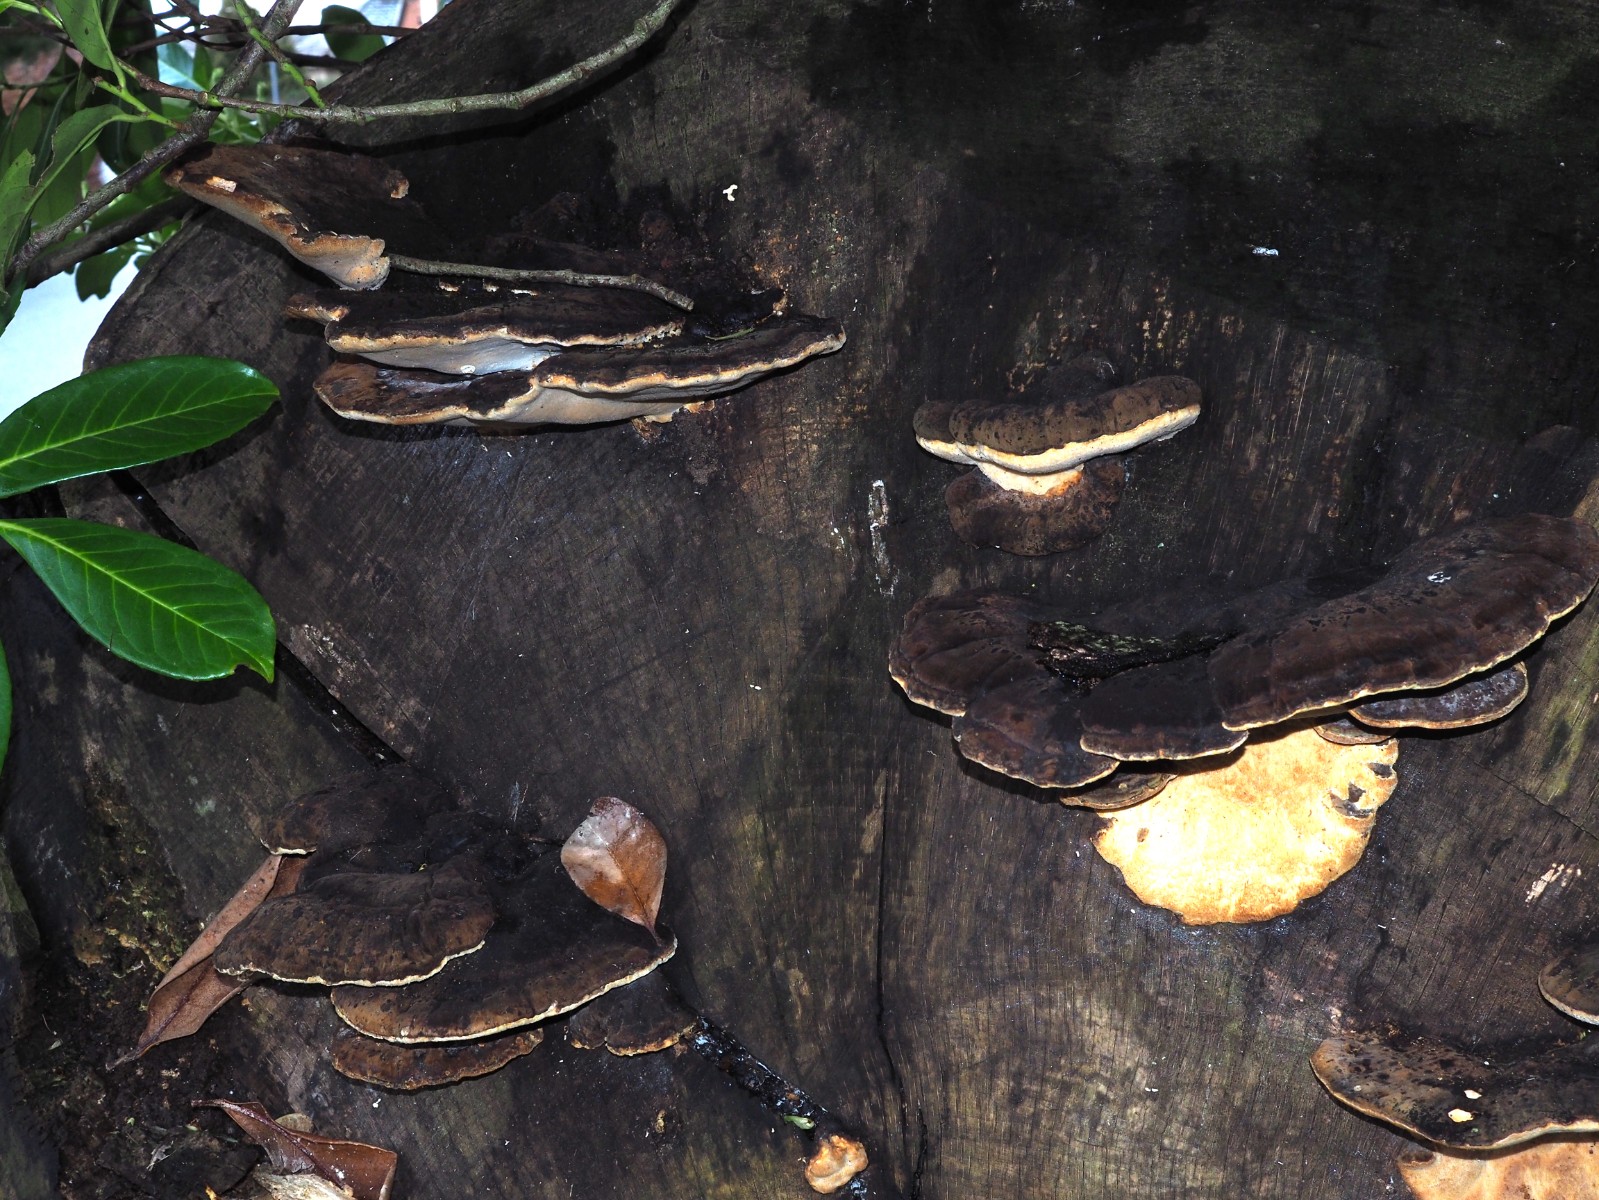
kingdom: Fungi
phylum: Basidiomycota
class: Agaricomycetes
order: Polyporales
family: Ischnodermataceae
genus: Ischnoderma
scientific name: Ischnoderma resinosum
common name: løv-tjæreporesvamp
